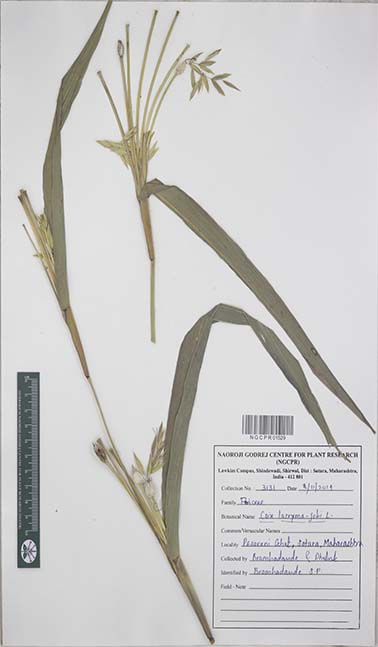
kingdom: Plantae
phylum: Tracheophyta
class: Liliopsida
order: Poales
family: Poaceae
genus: Coix
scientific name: Coix lacryma-jobi
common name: Job's tears
